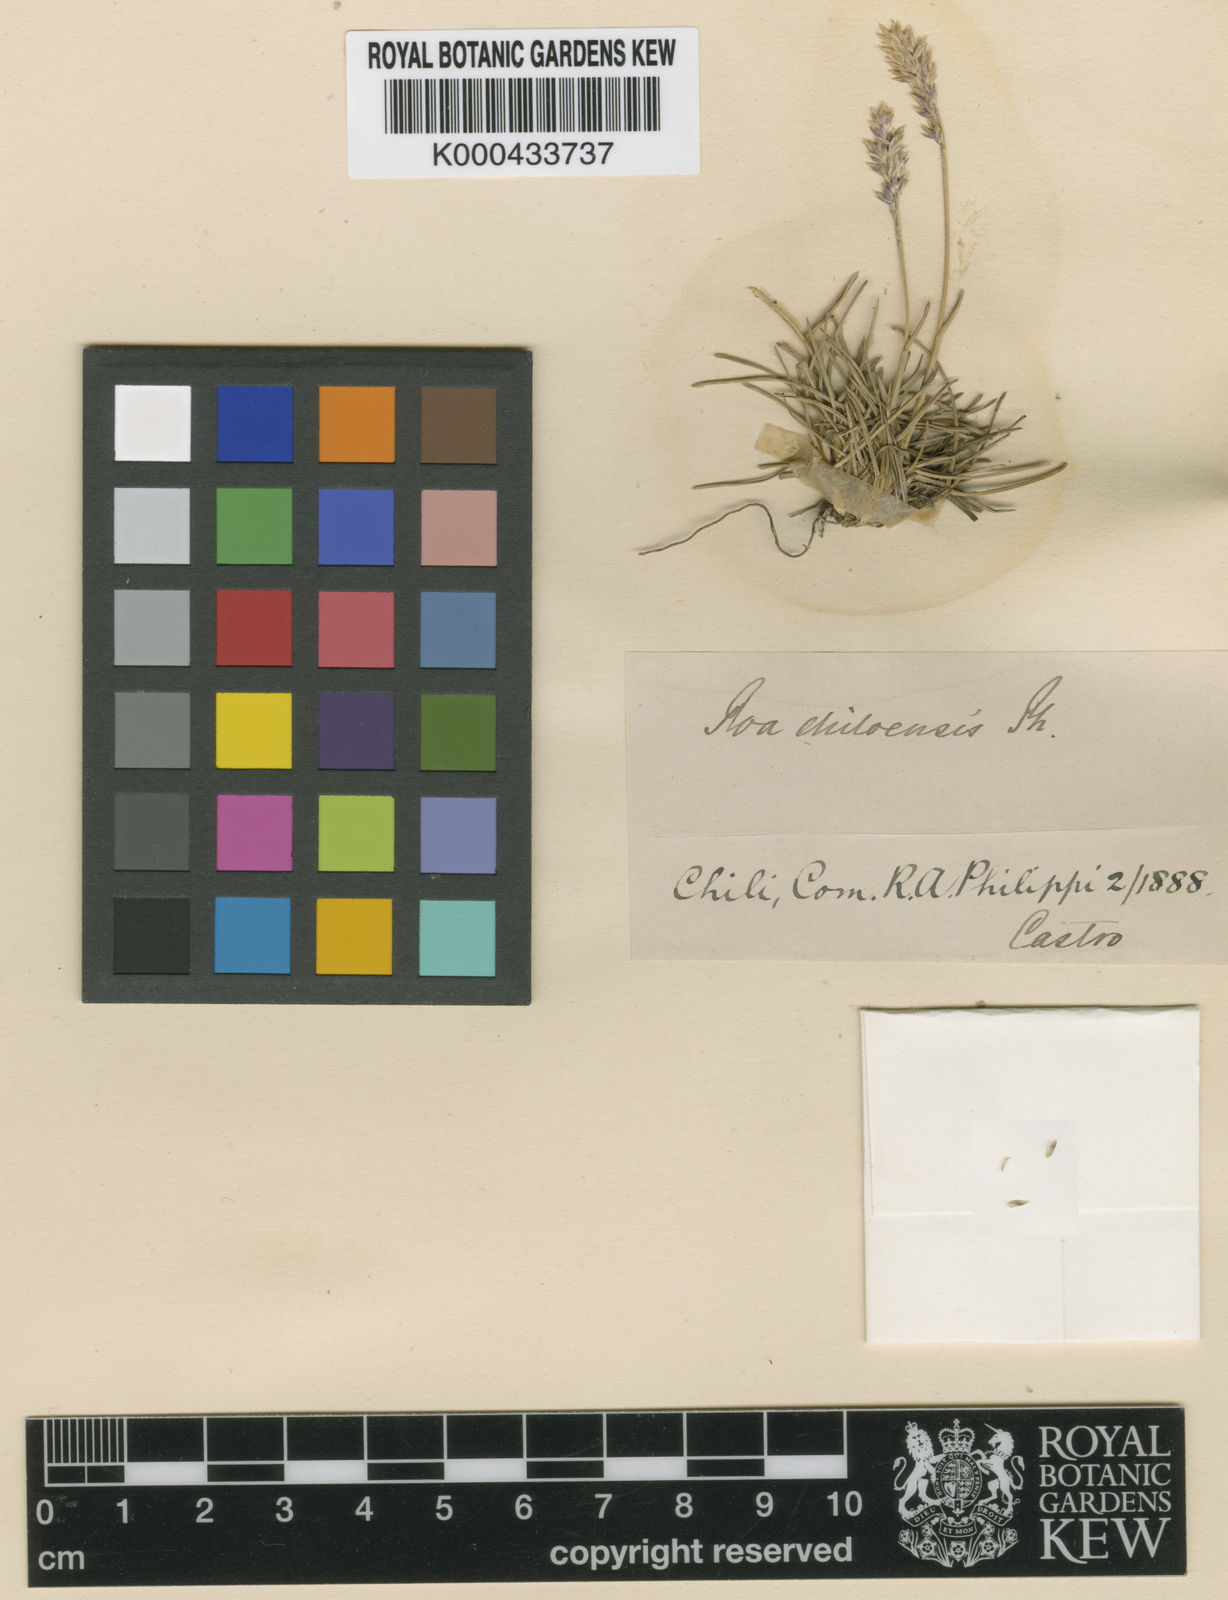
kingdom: Plantae
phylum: Tracheophyta
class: Liliopsida
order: Poales
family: Poaceae
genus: Poa
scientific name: Poa denudata
